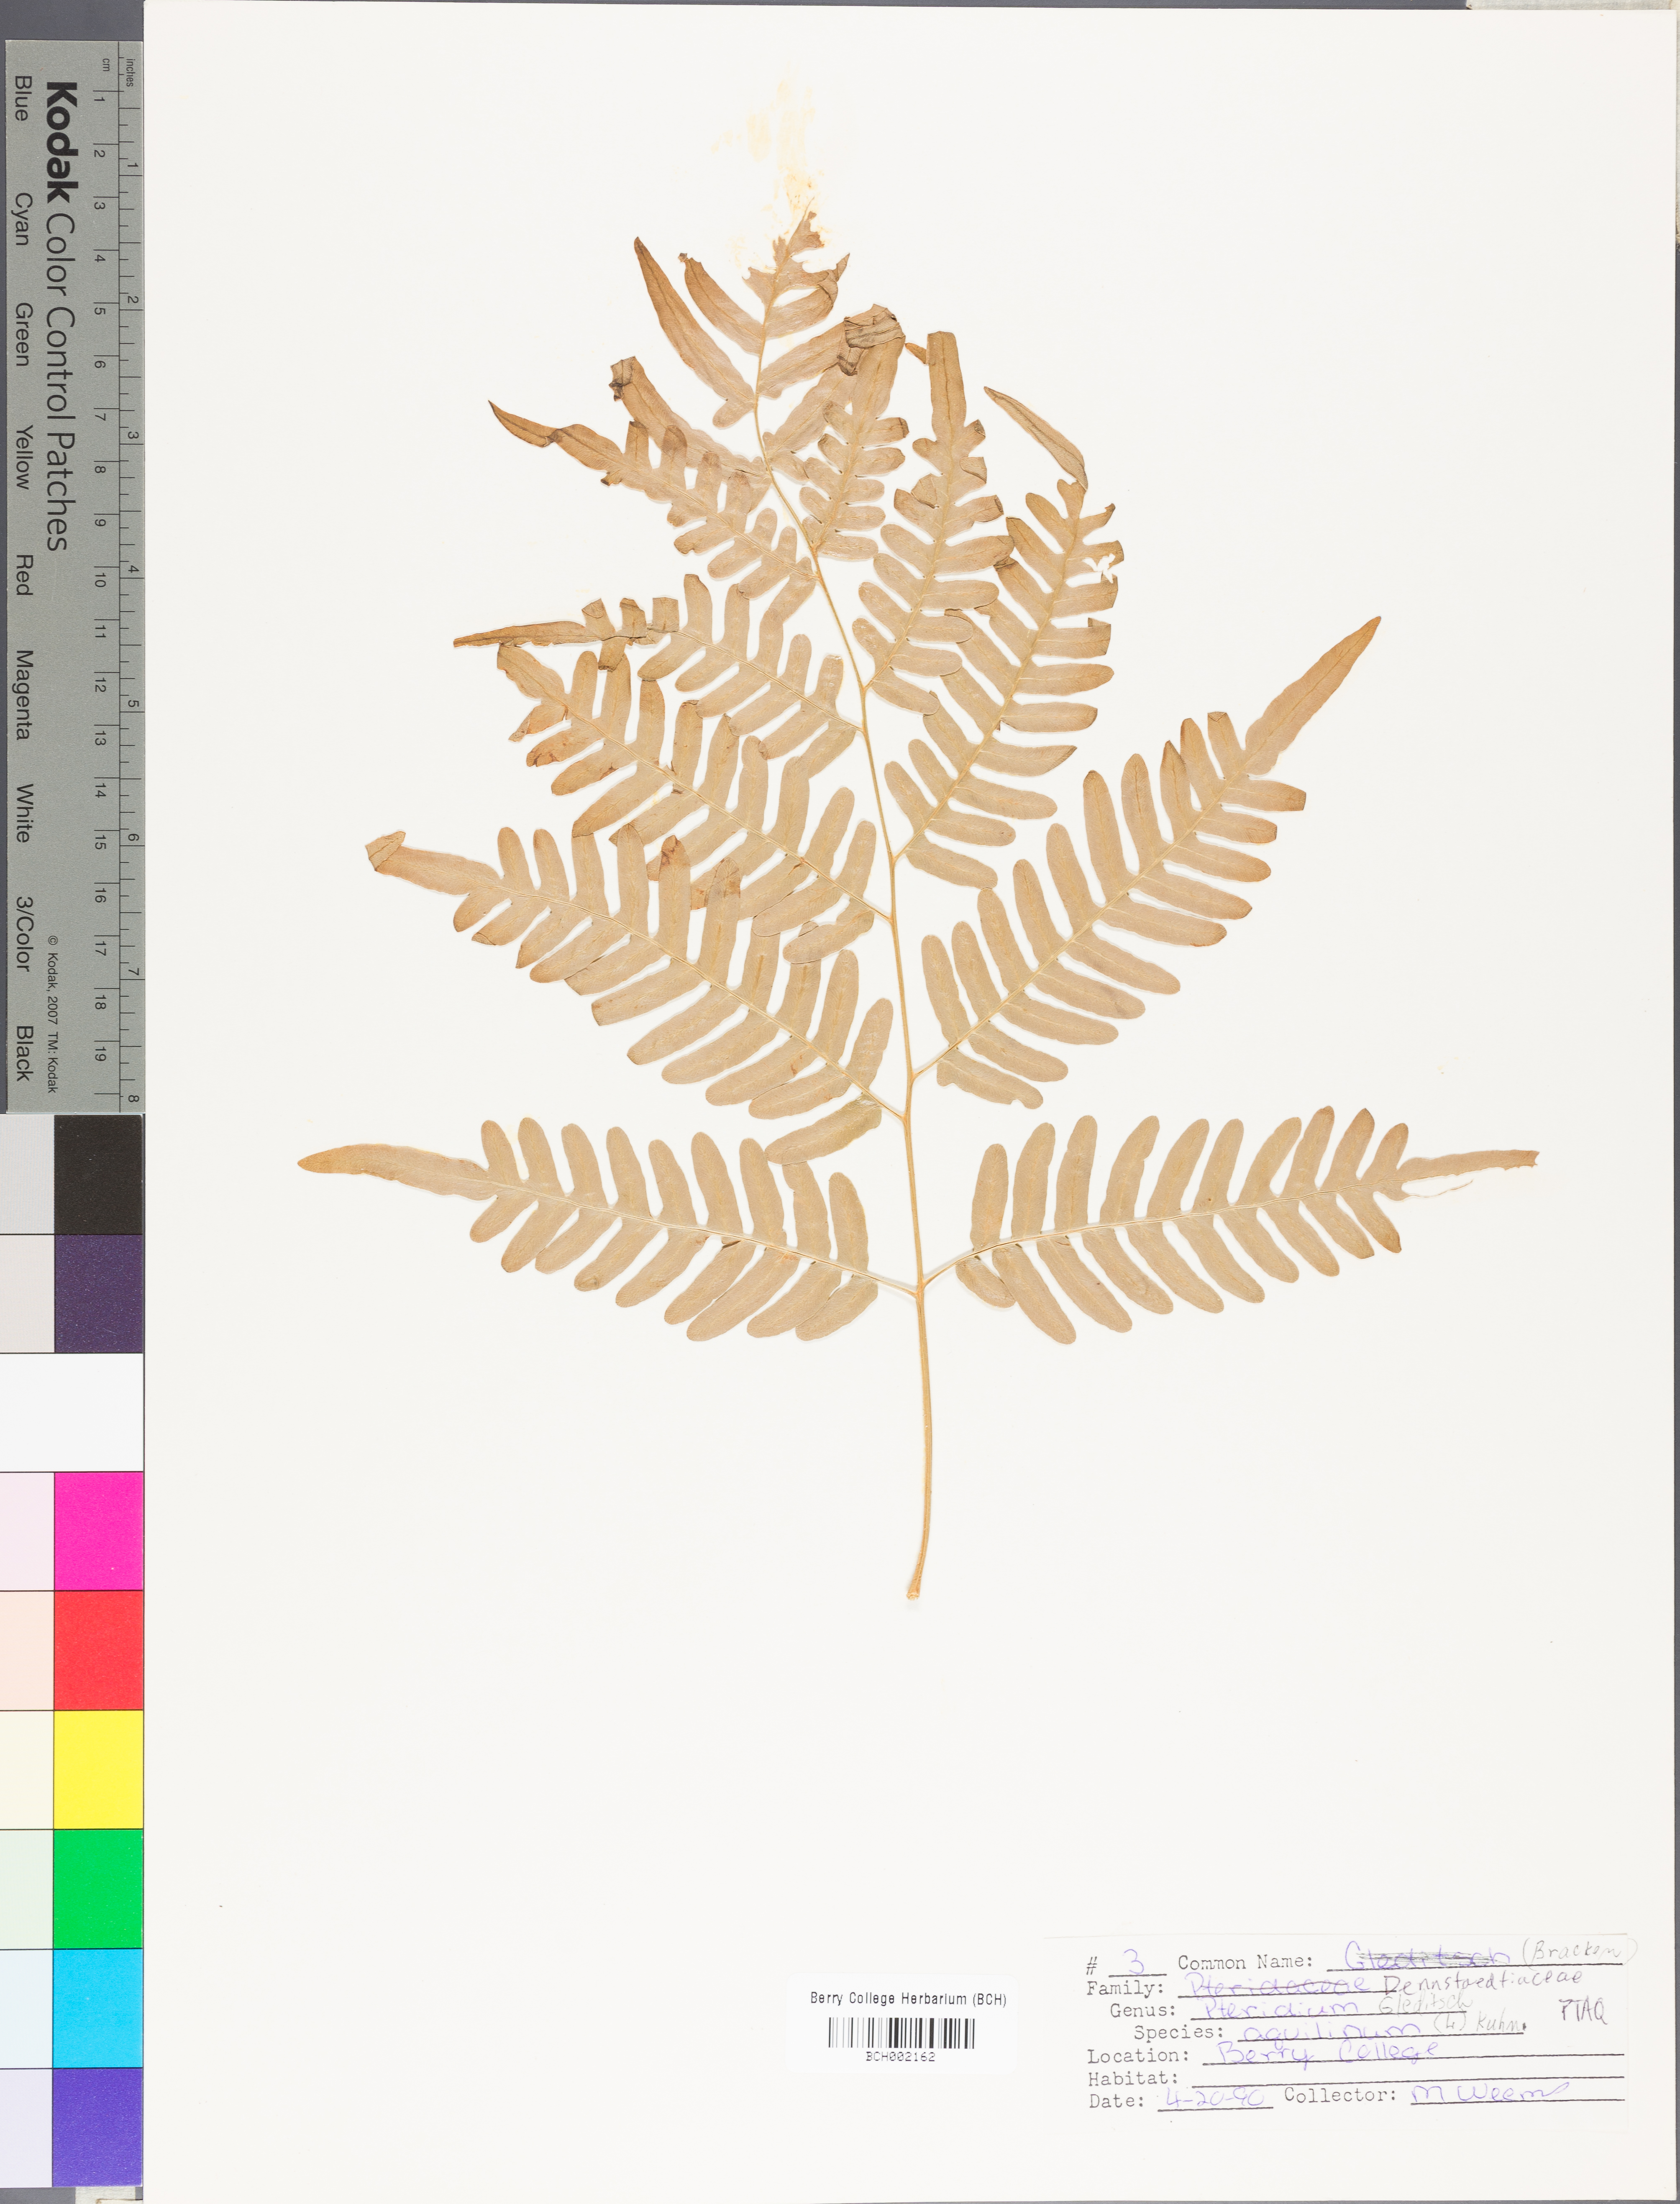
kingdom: Plantae
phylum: Tracheophyta
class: Polypodiopsida
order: Polypodiales
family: Dennstaedtiaceae
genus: Pteridium
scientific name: Pteridium aquilinum
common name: Bracken
